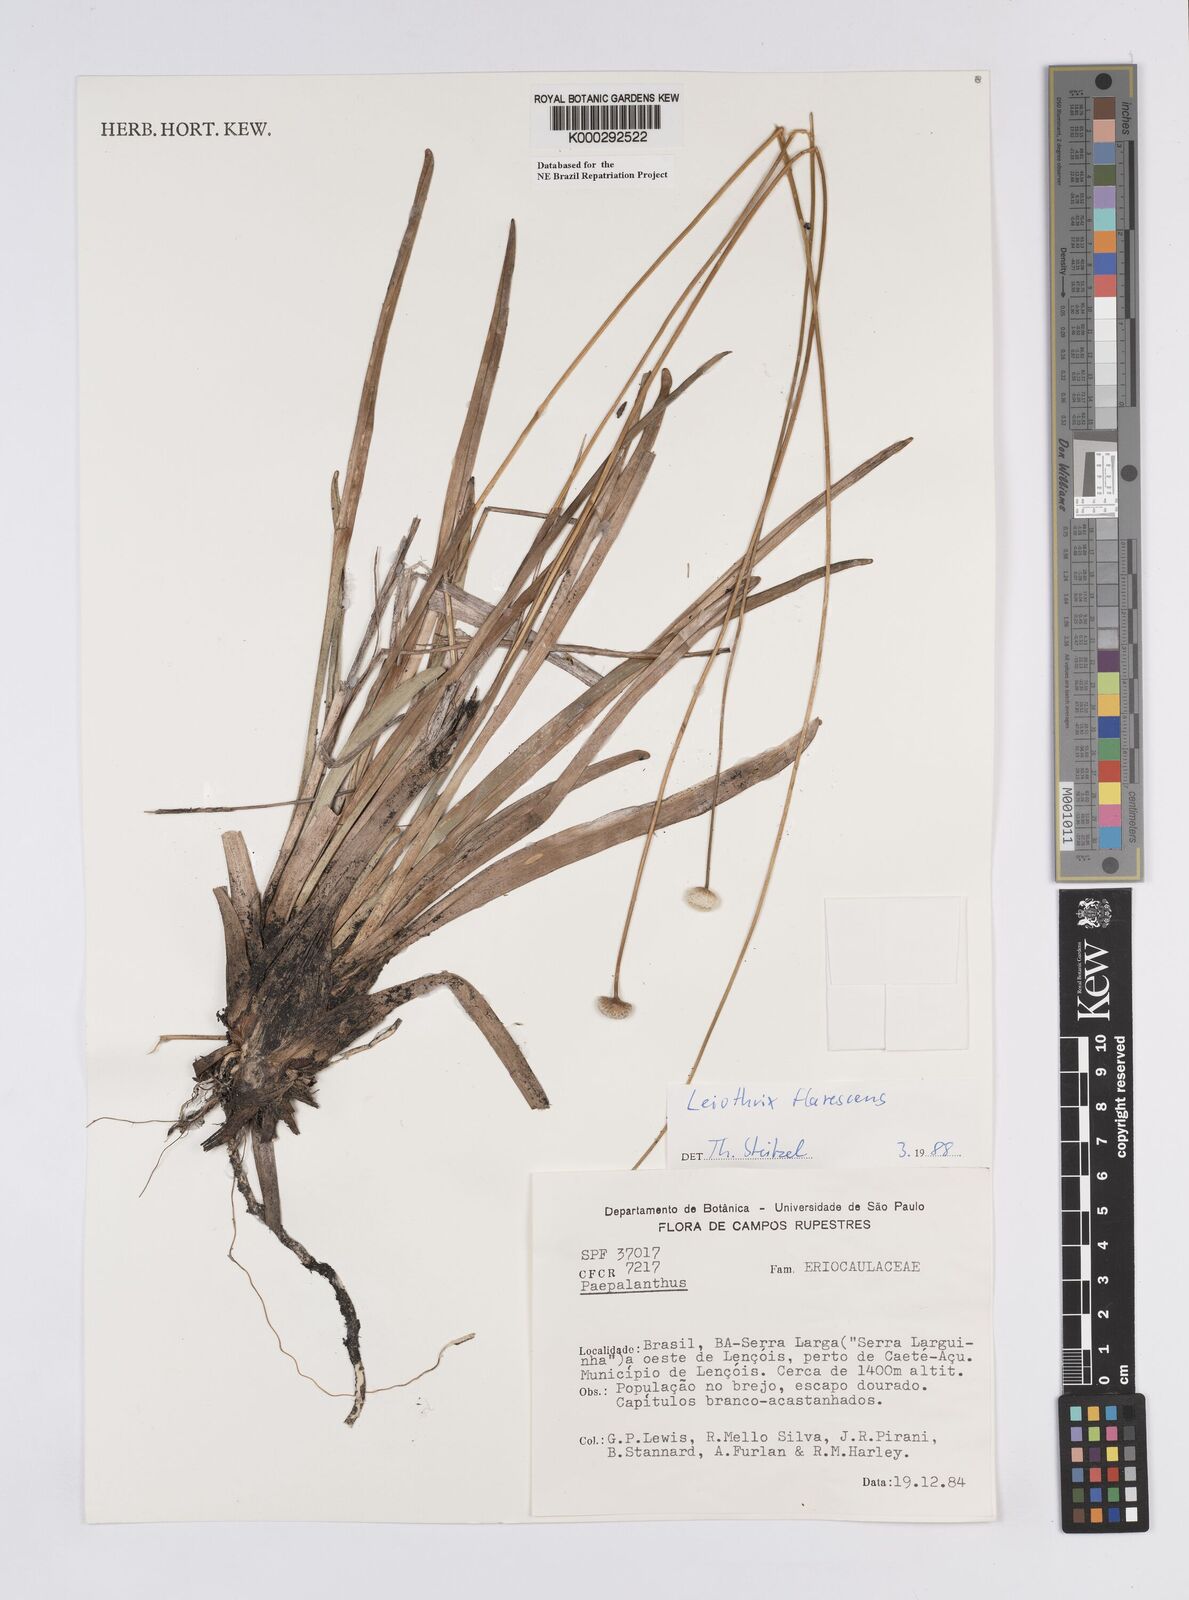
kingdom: Plantae
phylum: Tracheophyta
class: Liliopsida
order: Poales
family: Eriocaulaceae
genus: Leiothrix
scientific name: Leiothrix flavescens
